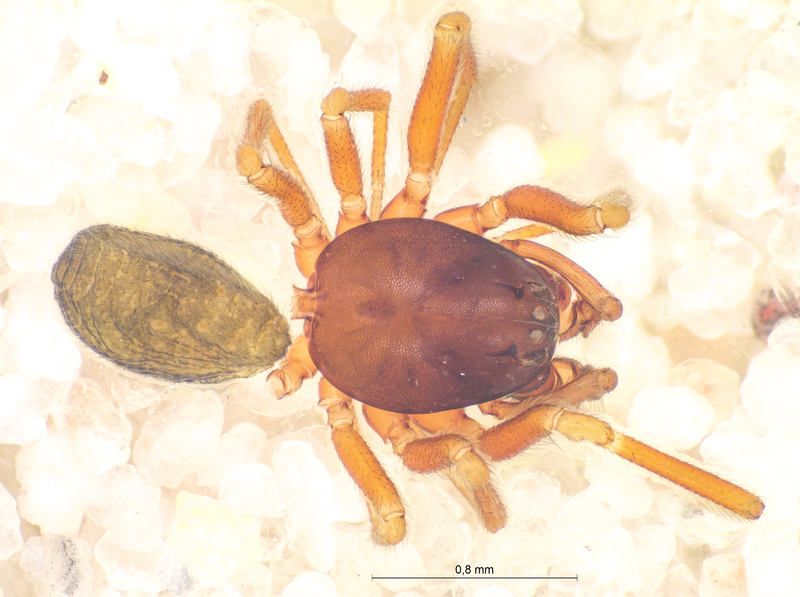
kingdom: Animalia
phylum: Arthropoda
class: Arachnida
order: Araneae
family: Linyphiidae
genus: Micrargus
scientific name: Micrargus herbigradus
